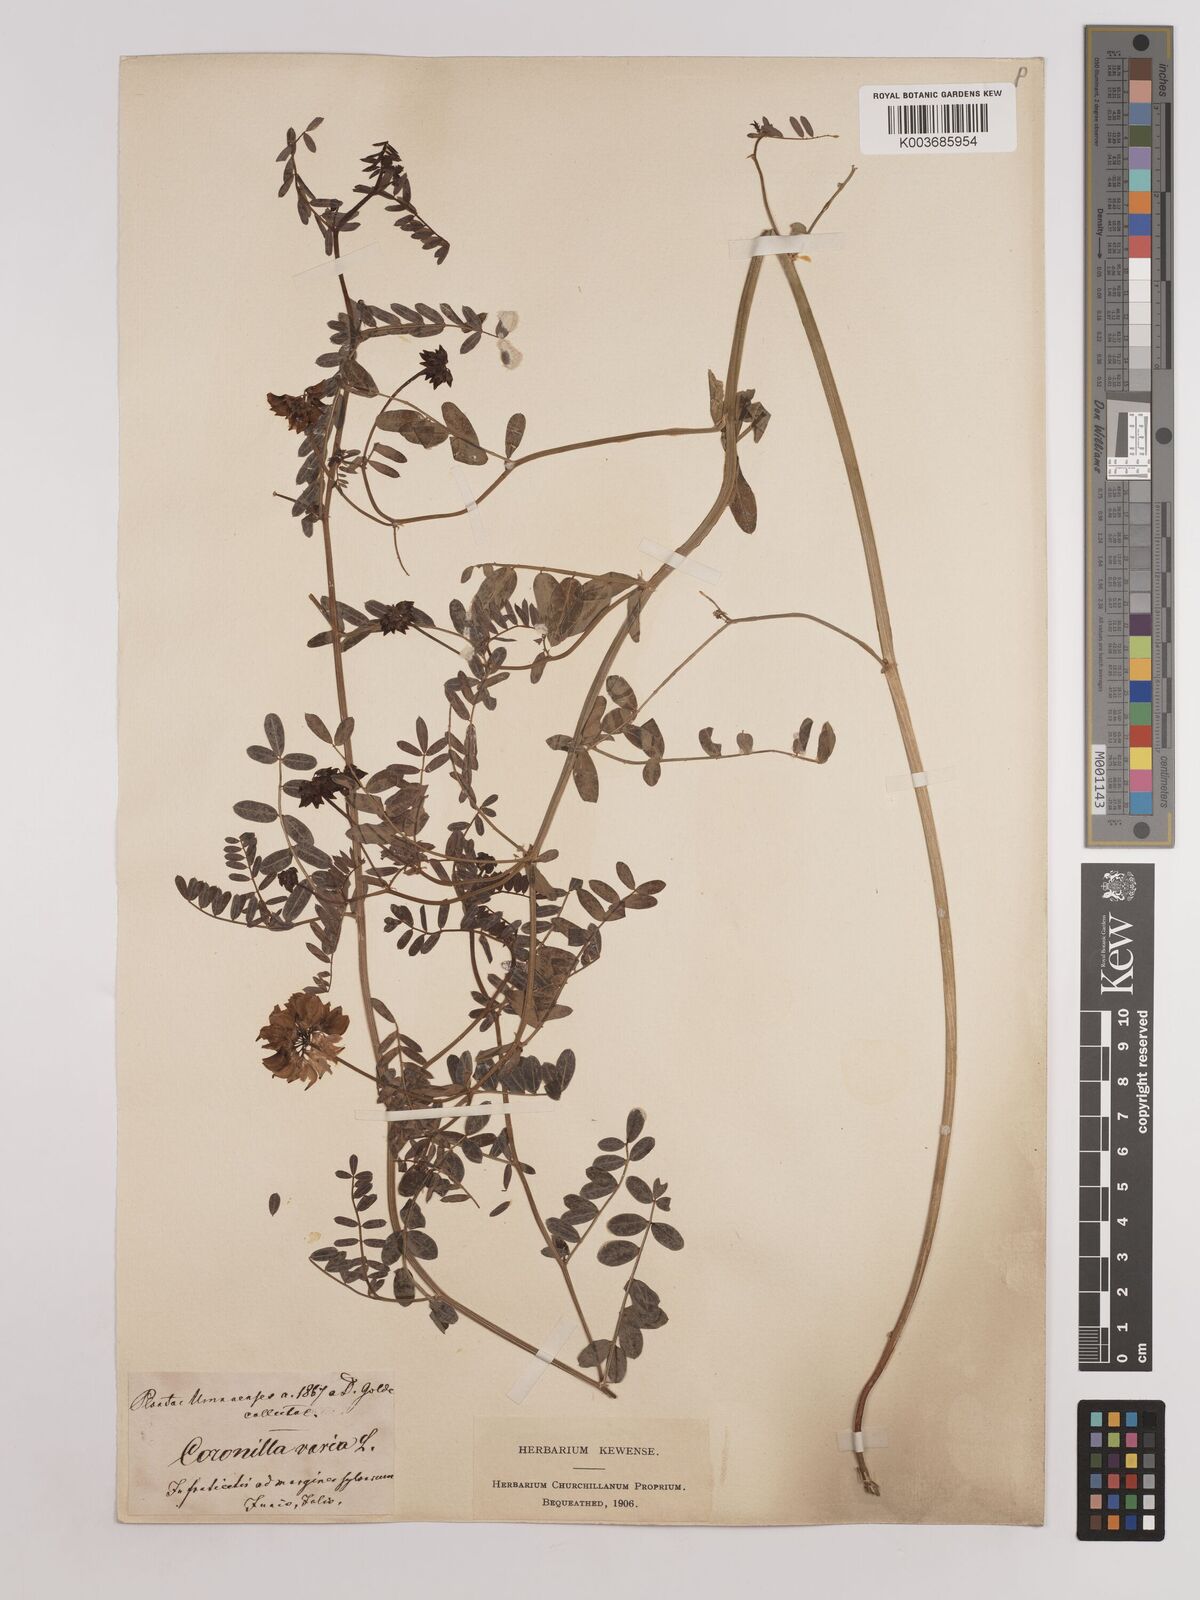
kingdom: Plantae
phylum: Tracheophyta
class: Magnoliopsida
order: Fabales
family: Fabaceae
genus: Coronilla
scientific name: Coronilla varia
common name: Crownvetch
